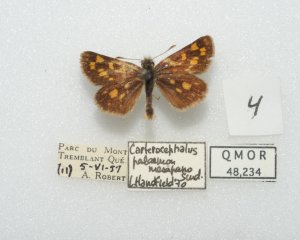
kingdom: Animalia
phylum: Arthropoda
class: Insecta
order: Lepidoptera
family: Hesperiidae
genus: Carterocephalus
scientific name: Carterocephalus palaemon
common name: Chequered Skipper
